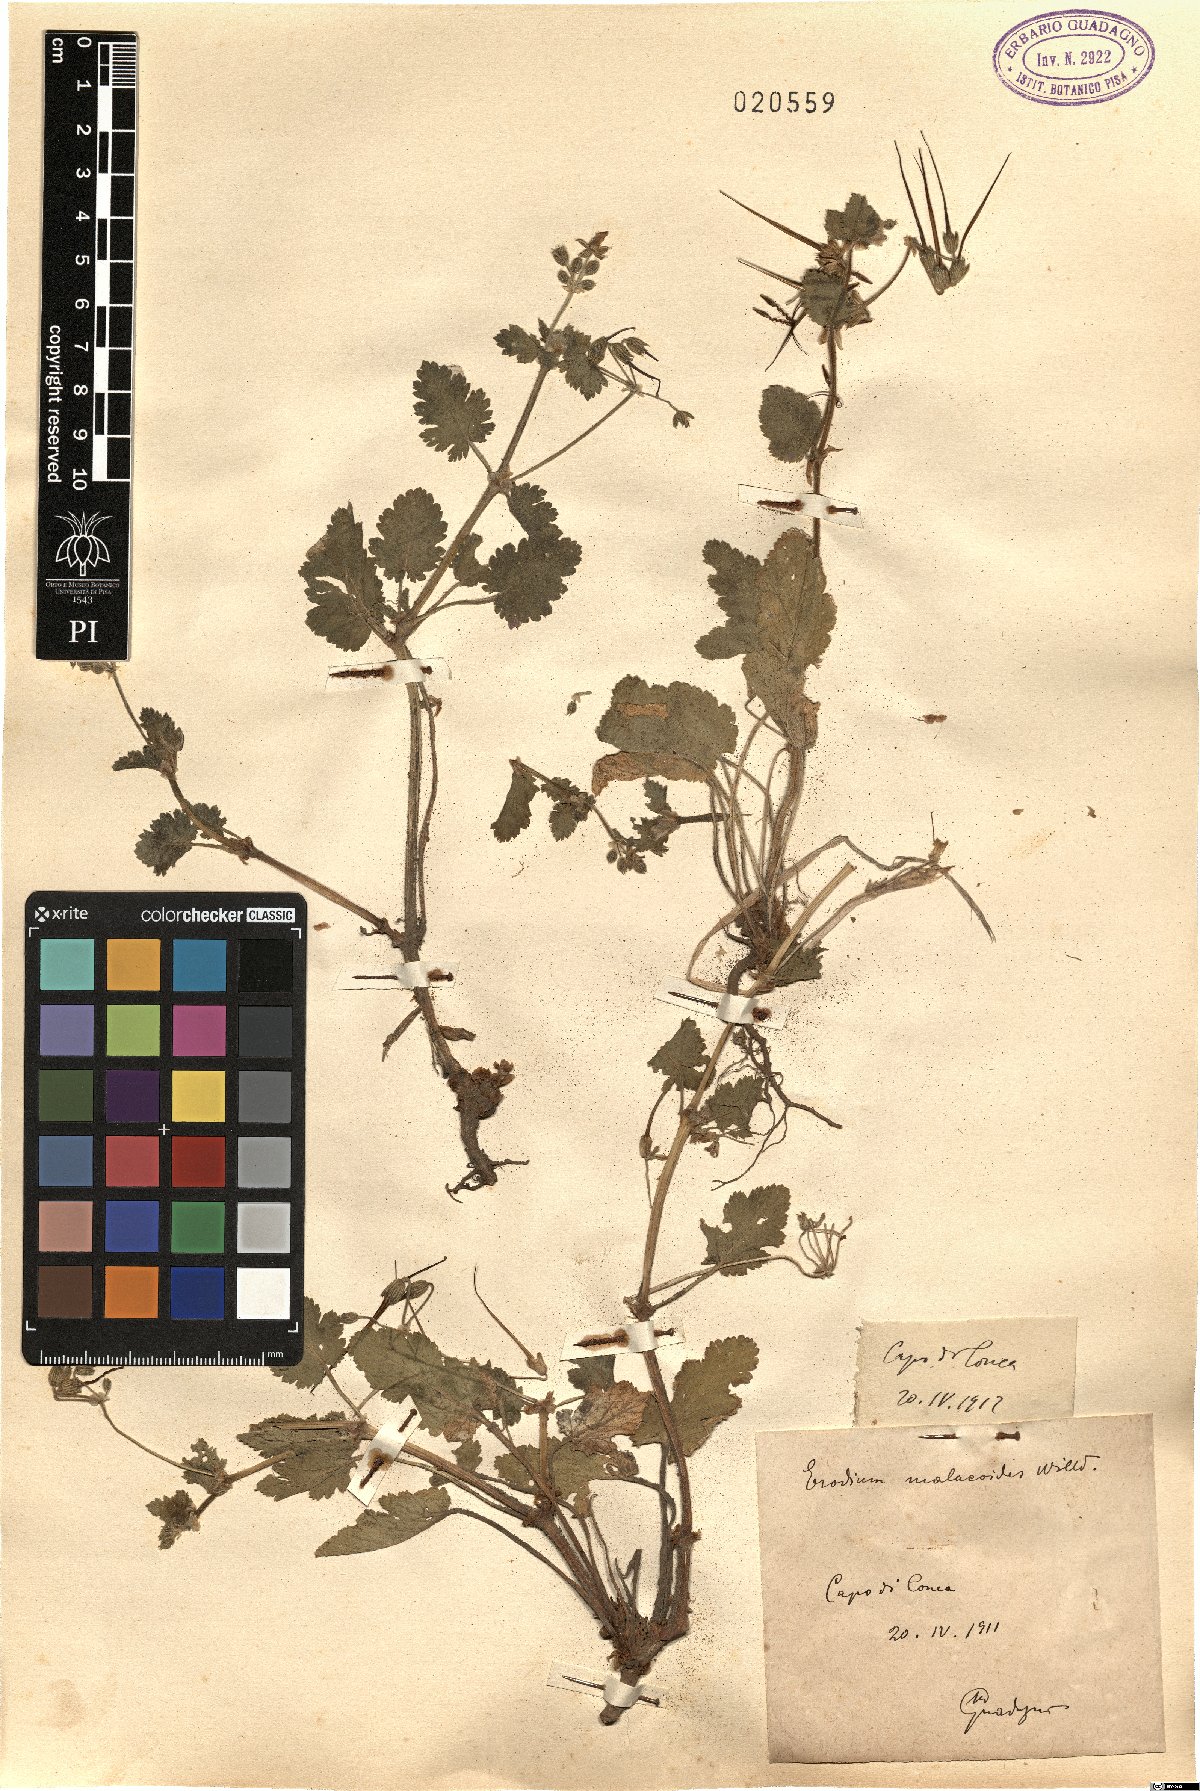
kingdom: Plantae
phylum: Tracheophyta
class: Magnoliopsida
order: Geraniales
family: Geraniaceae
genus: Erodium
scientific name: Erodium malacoides
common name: Soft stork's-bill
